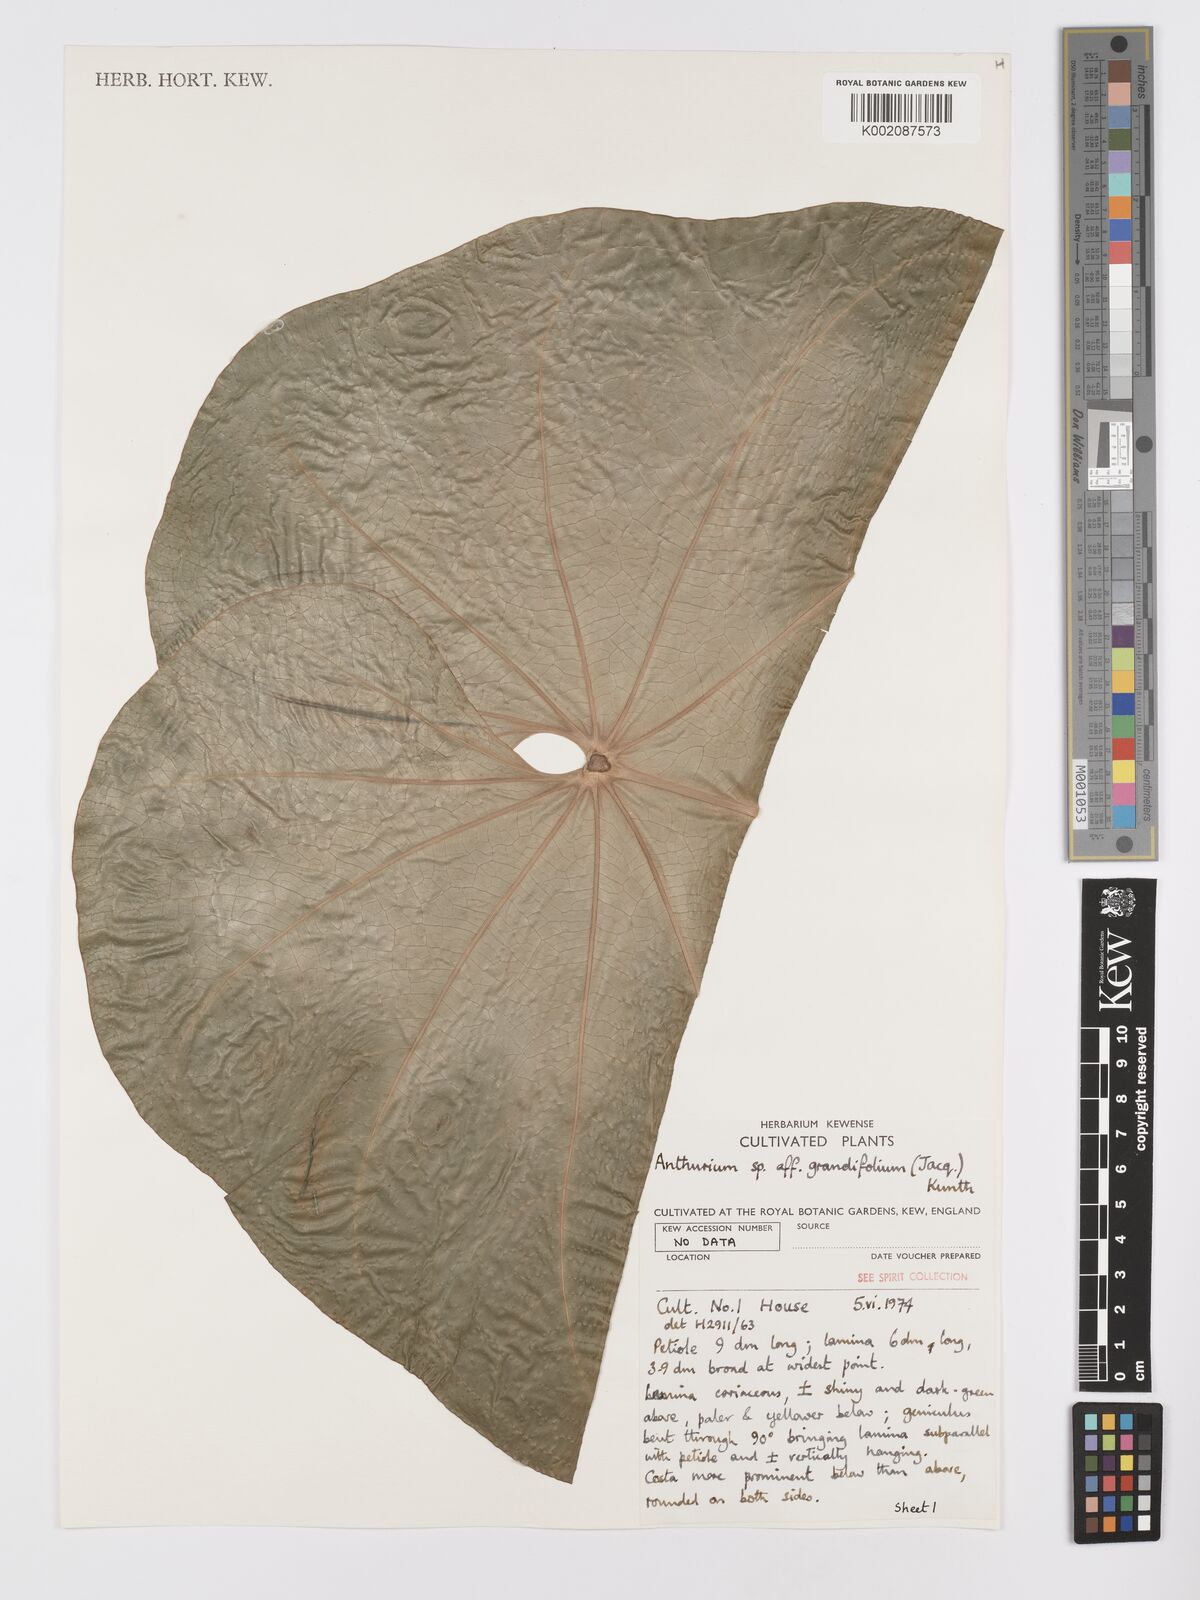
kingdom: Plantae
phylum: Tracheophyta
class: Liliopsida
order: Alismatales
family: Araceae
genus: Anthurium
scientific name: Anthurium grandifolium
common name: Monkey tail
